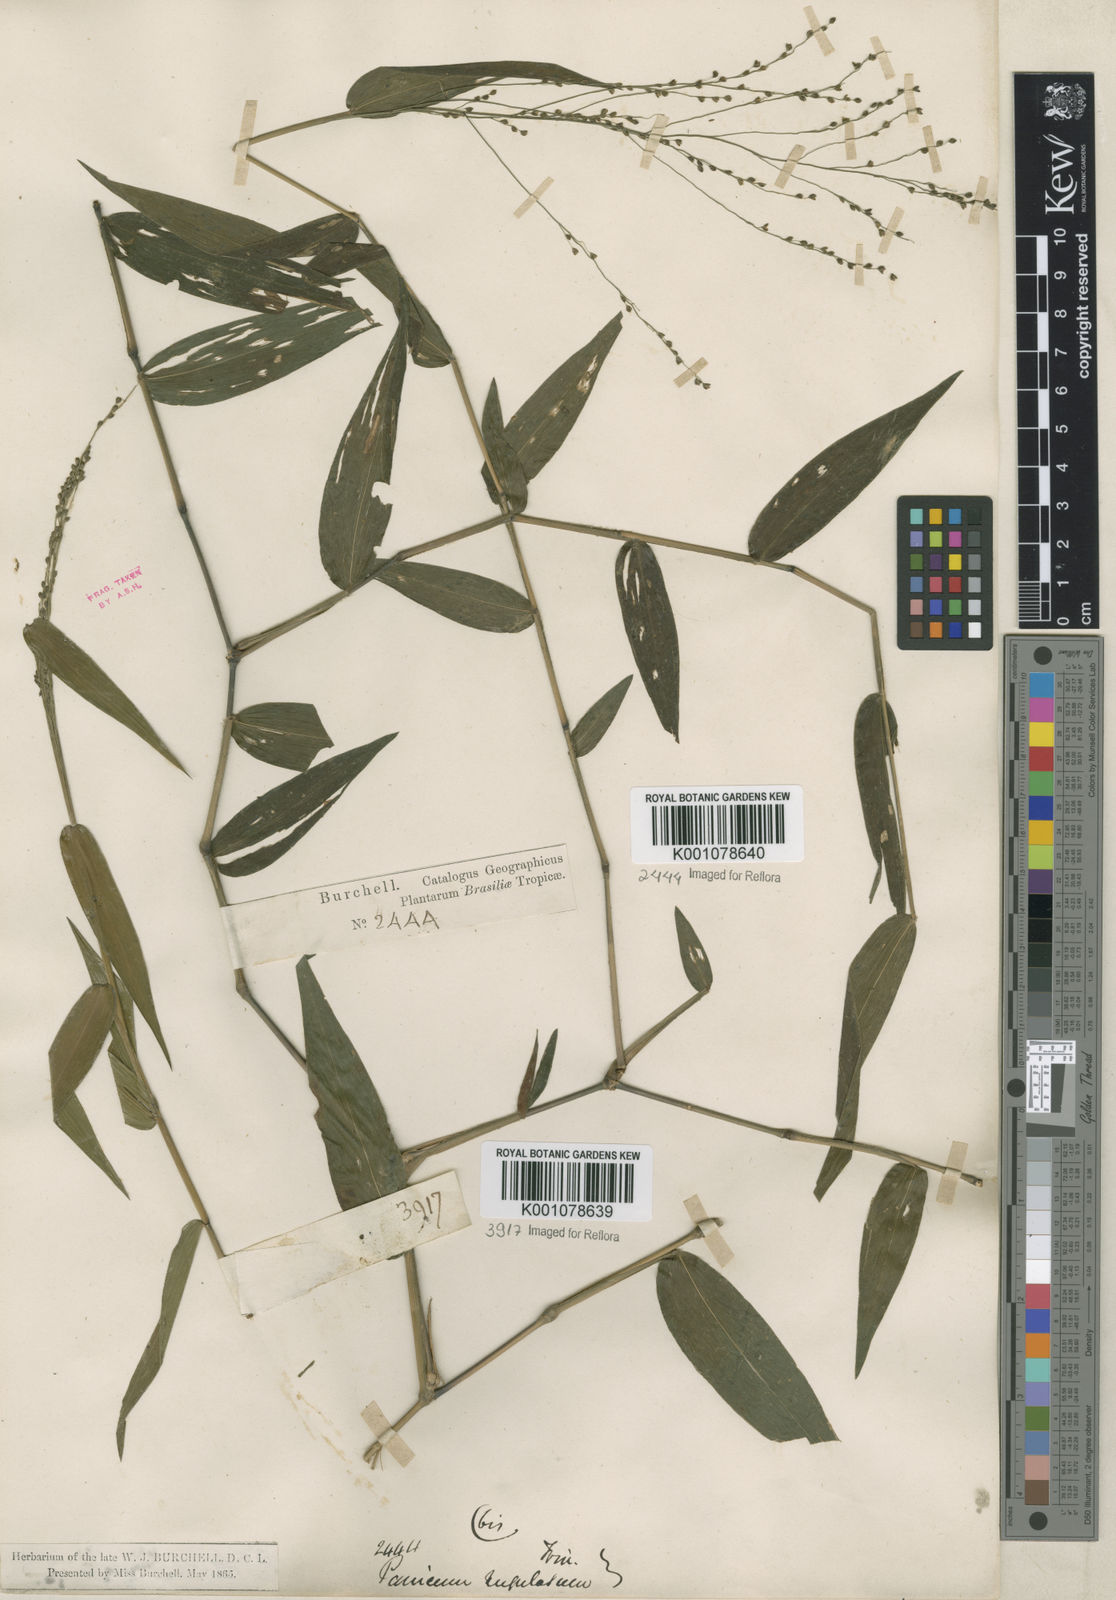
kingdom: Plantae
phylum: Tracheophyta
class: Liliopsida
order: Poales
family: Poaceae
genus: Panicum
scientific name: Panicum millegrana
